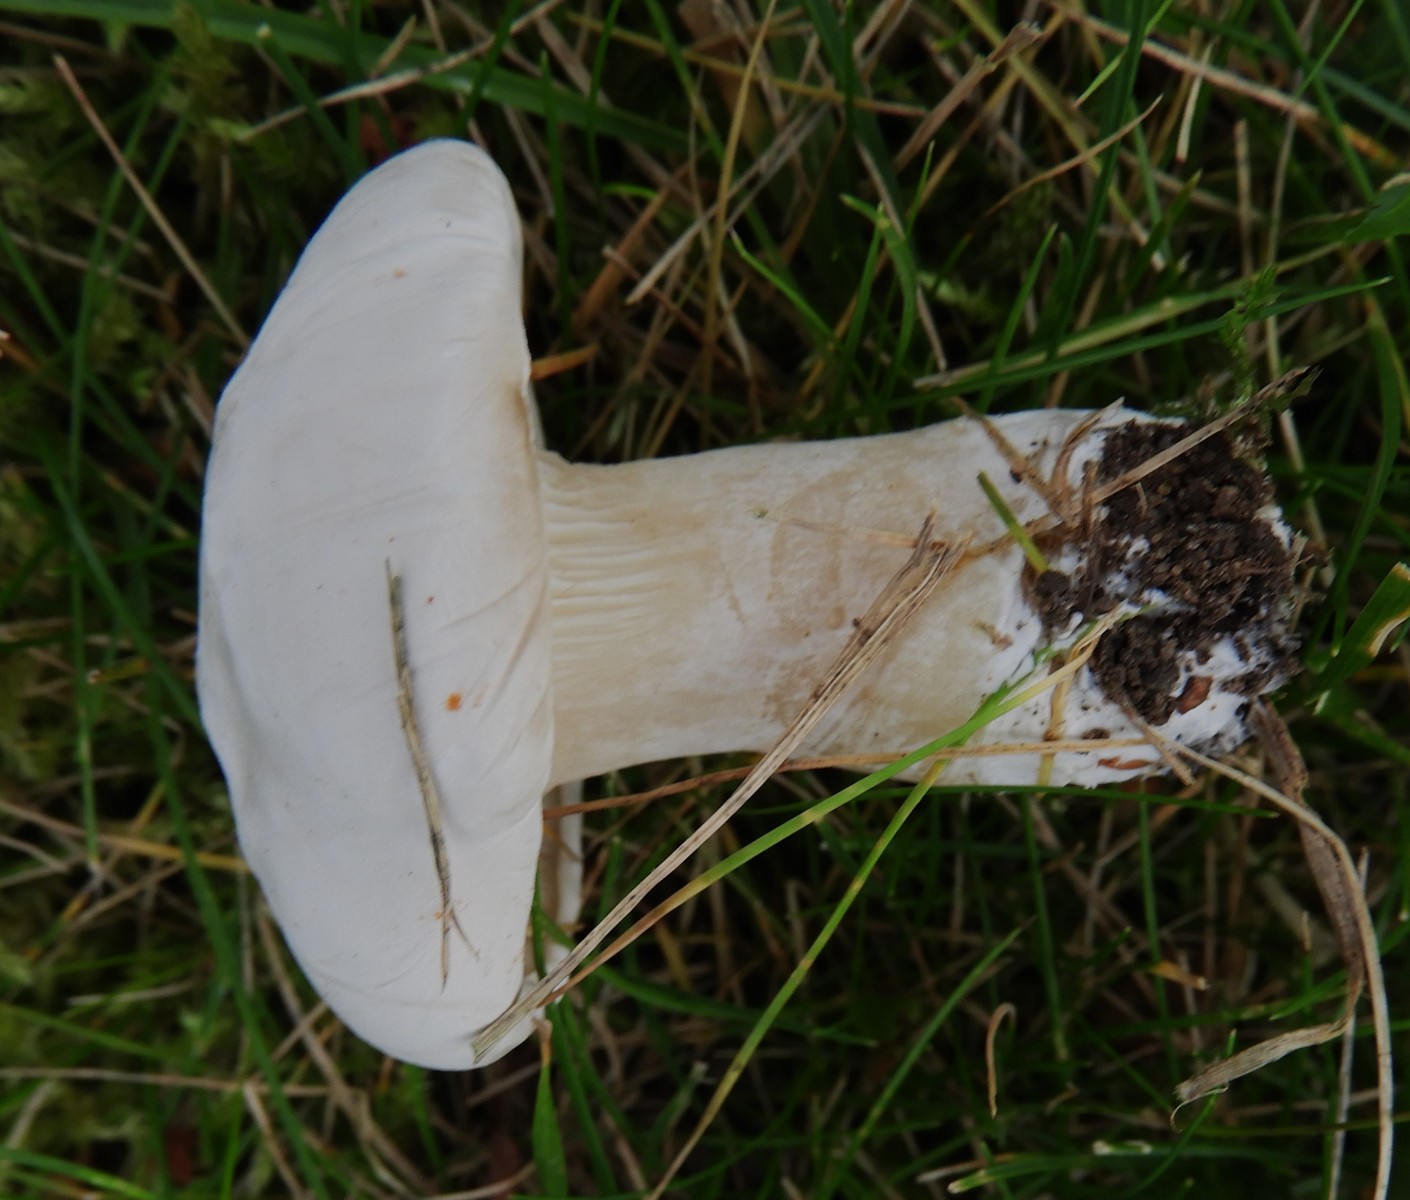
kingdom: Fungi
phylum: Basidiomycota
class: Agaricomycetes
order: Agaricales
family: Entolomataceae
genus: Clitopilus
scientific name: Clitopilus prunulus
